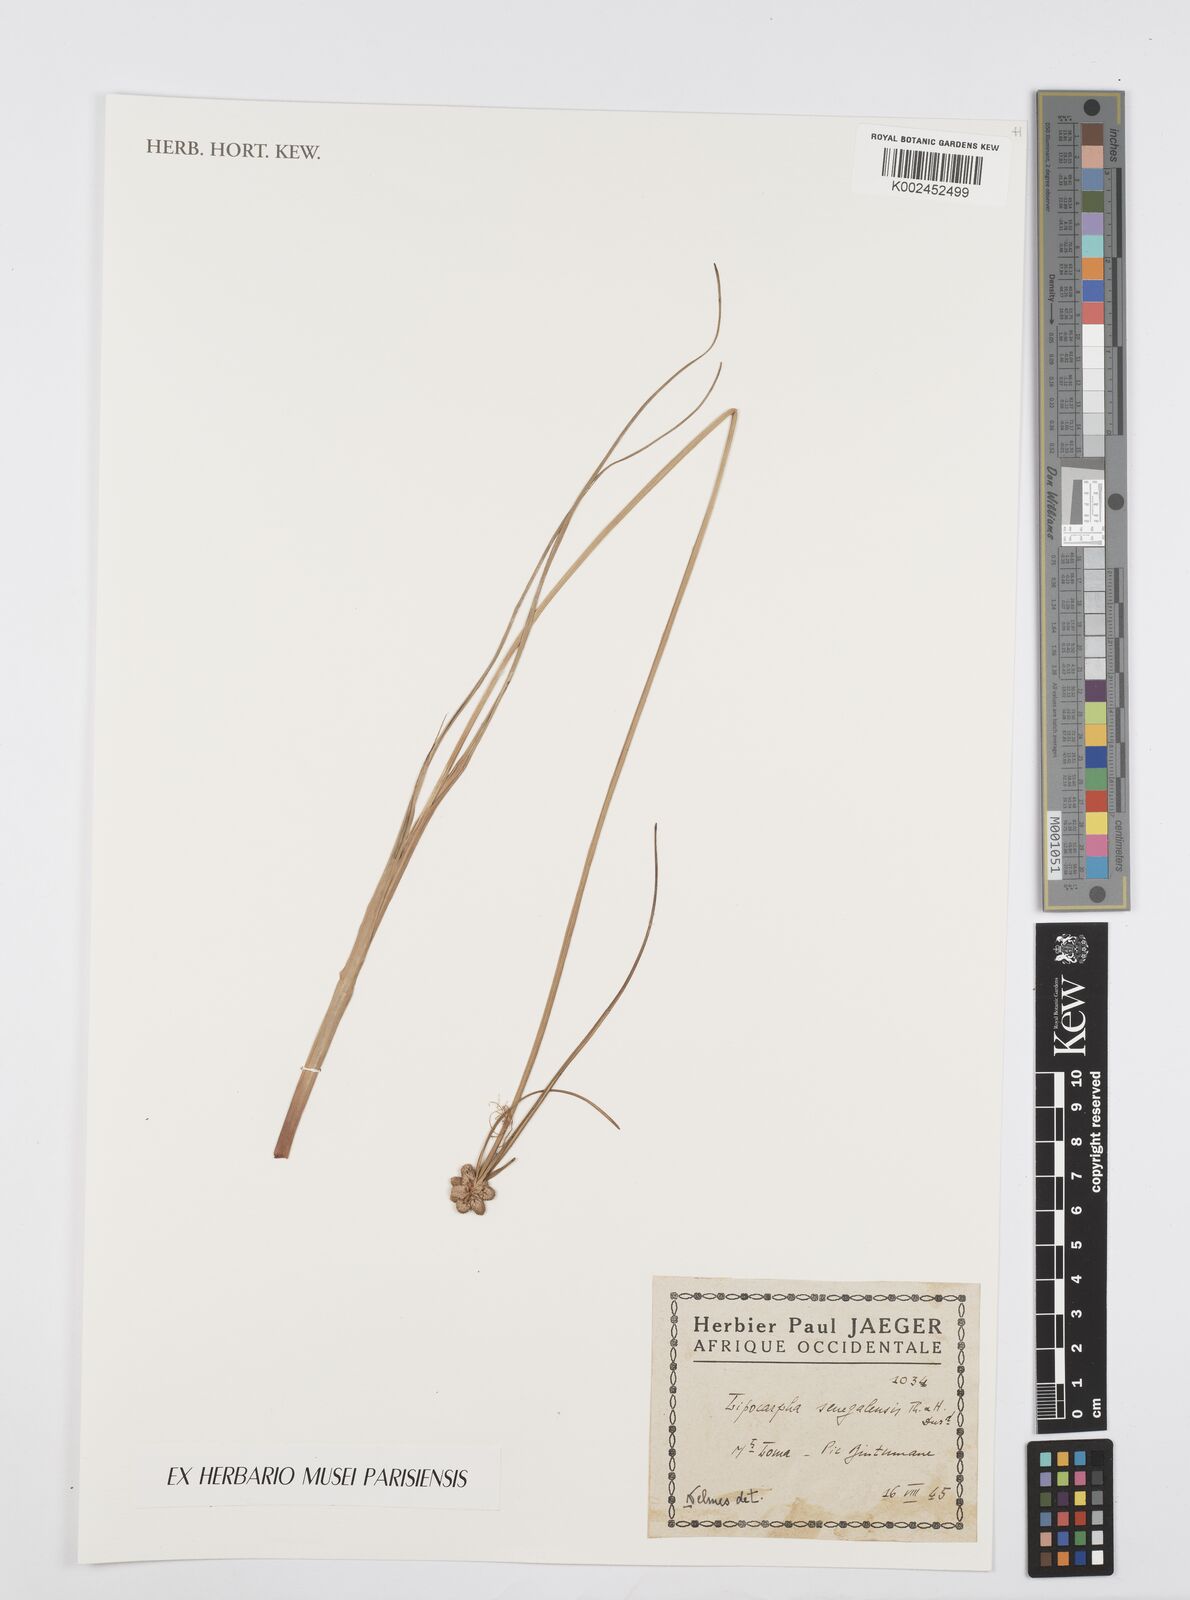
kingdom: Plantae
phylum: Tracheophyta
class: Liliopsida
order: Poales
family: Cyperaceae
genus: Cyperus
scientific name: Cyperus albescens
